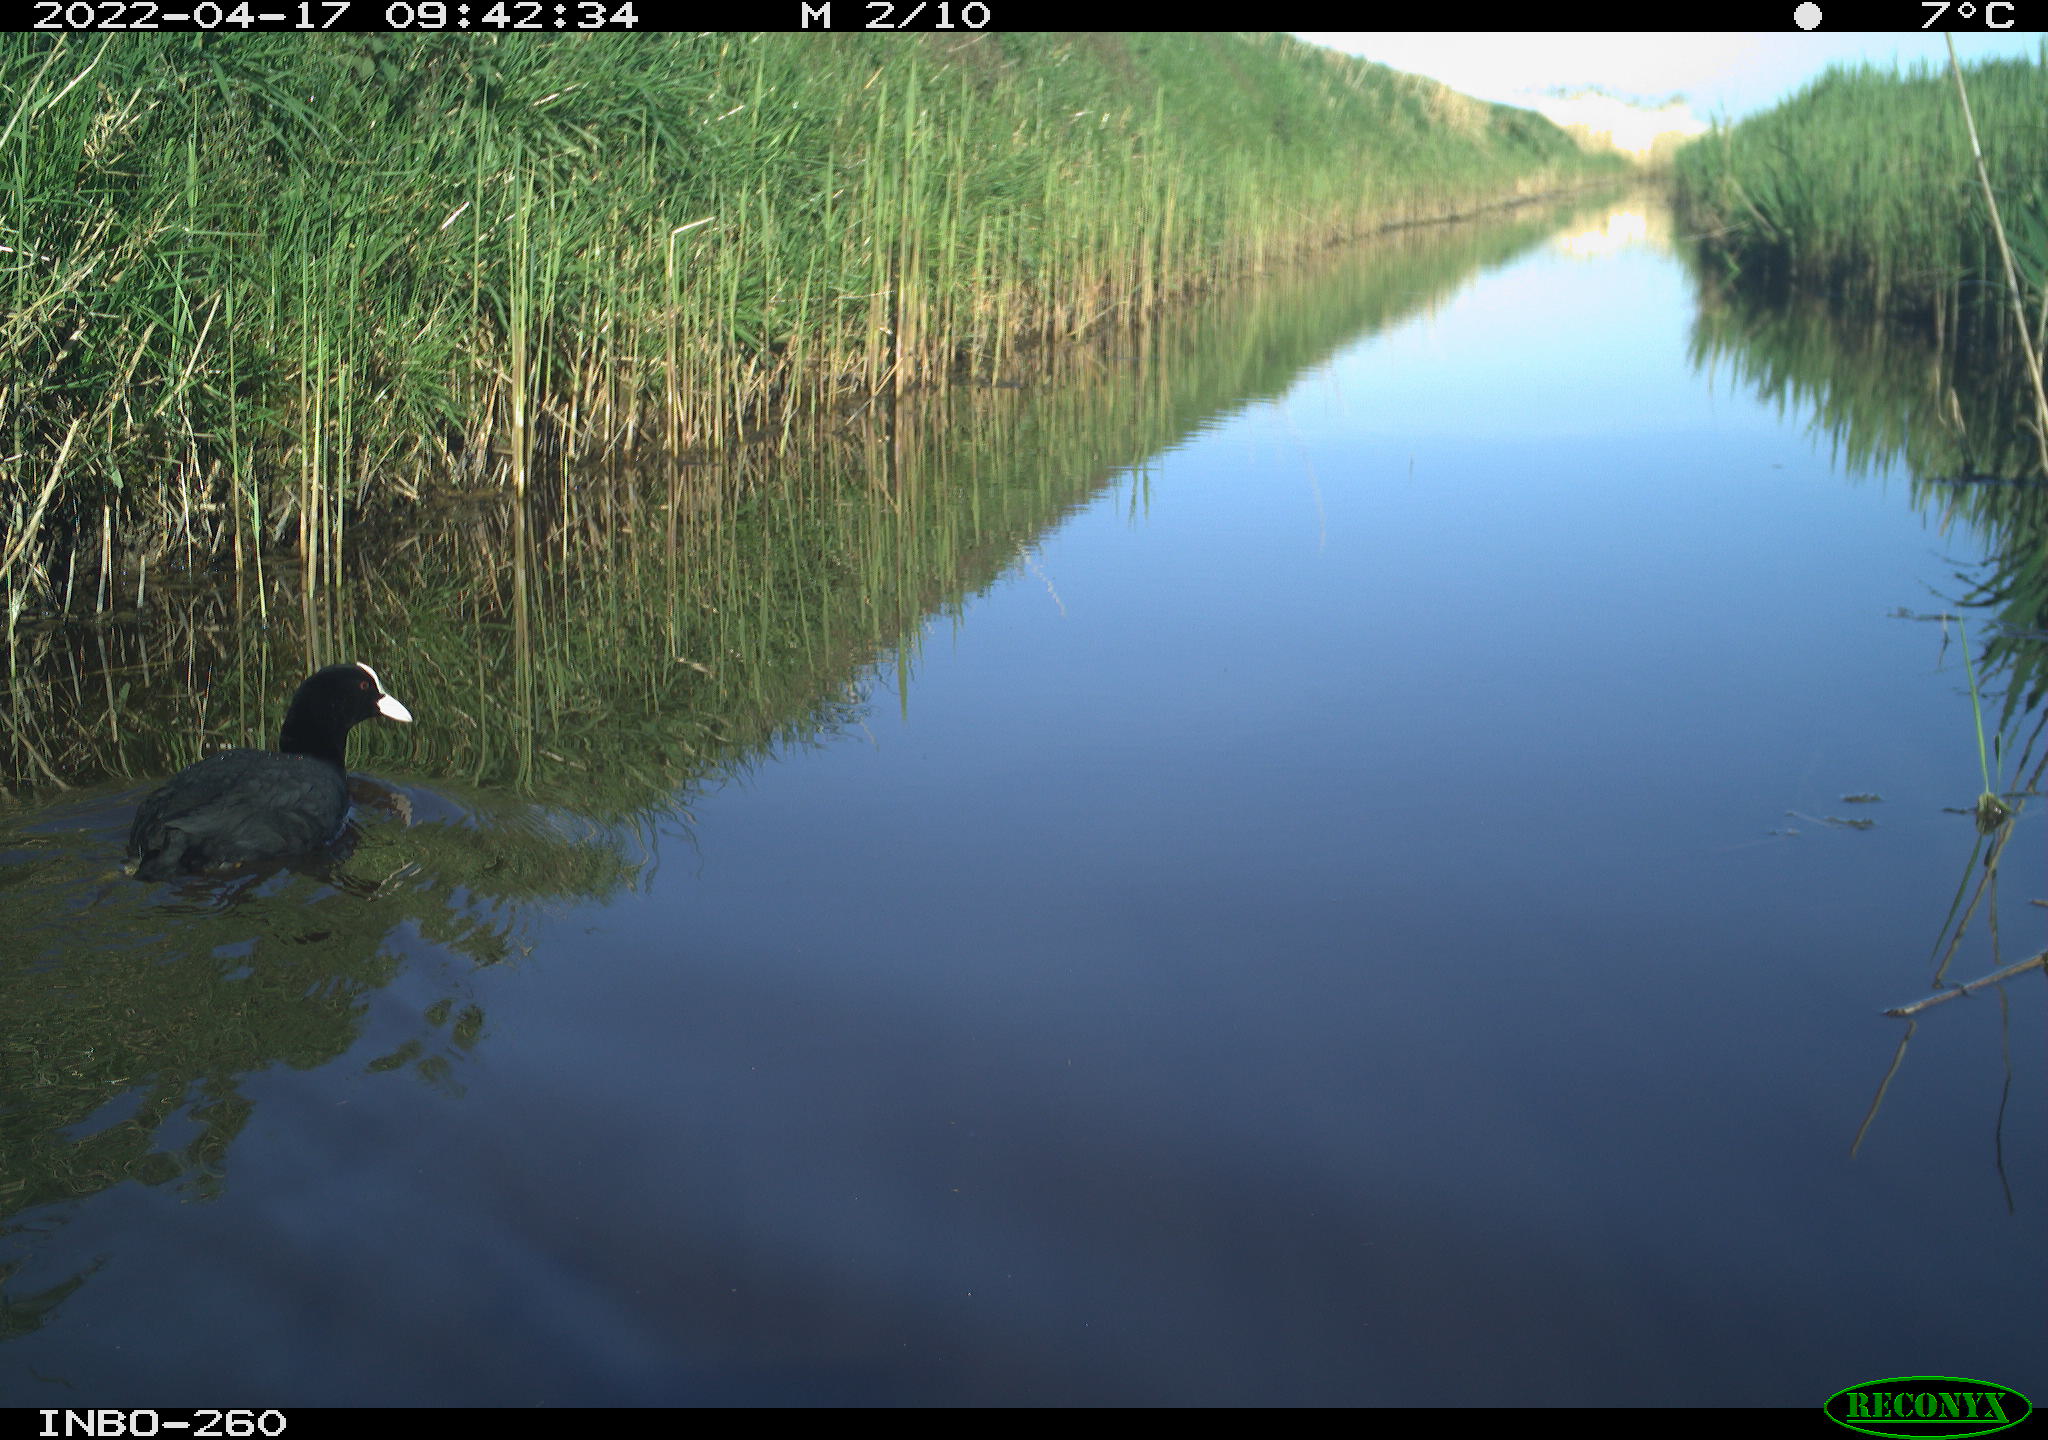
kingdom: Animalia
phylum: Chordata
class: Aves
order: Gruiformes
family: Rallidae
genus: Fulica
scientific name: Fulica atra
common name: Eurasian coot
